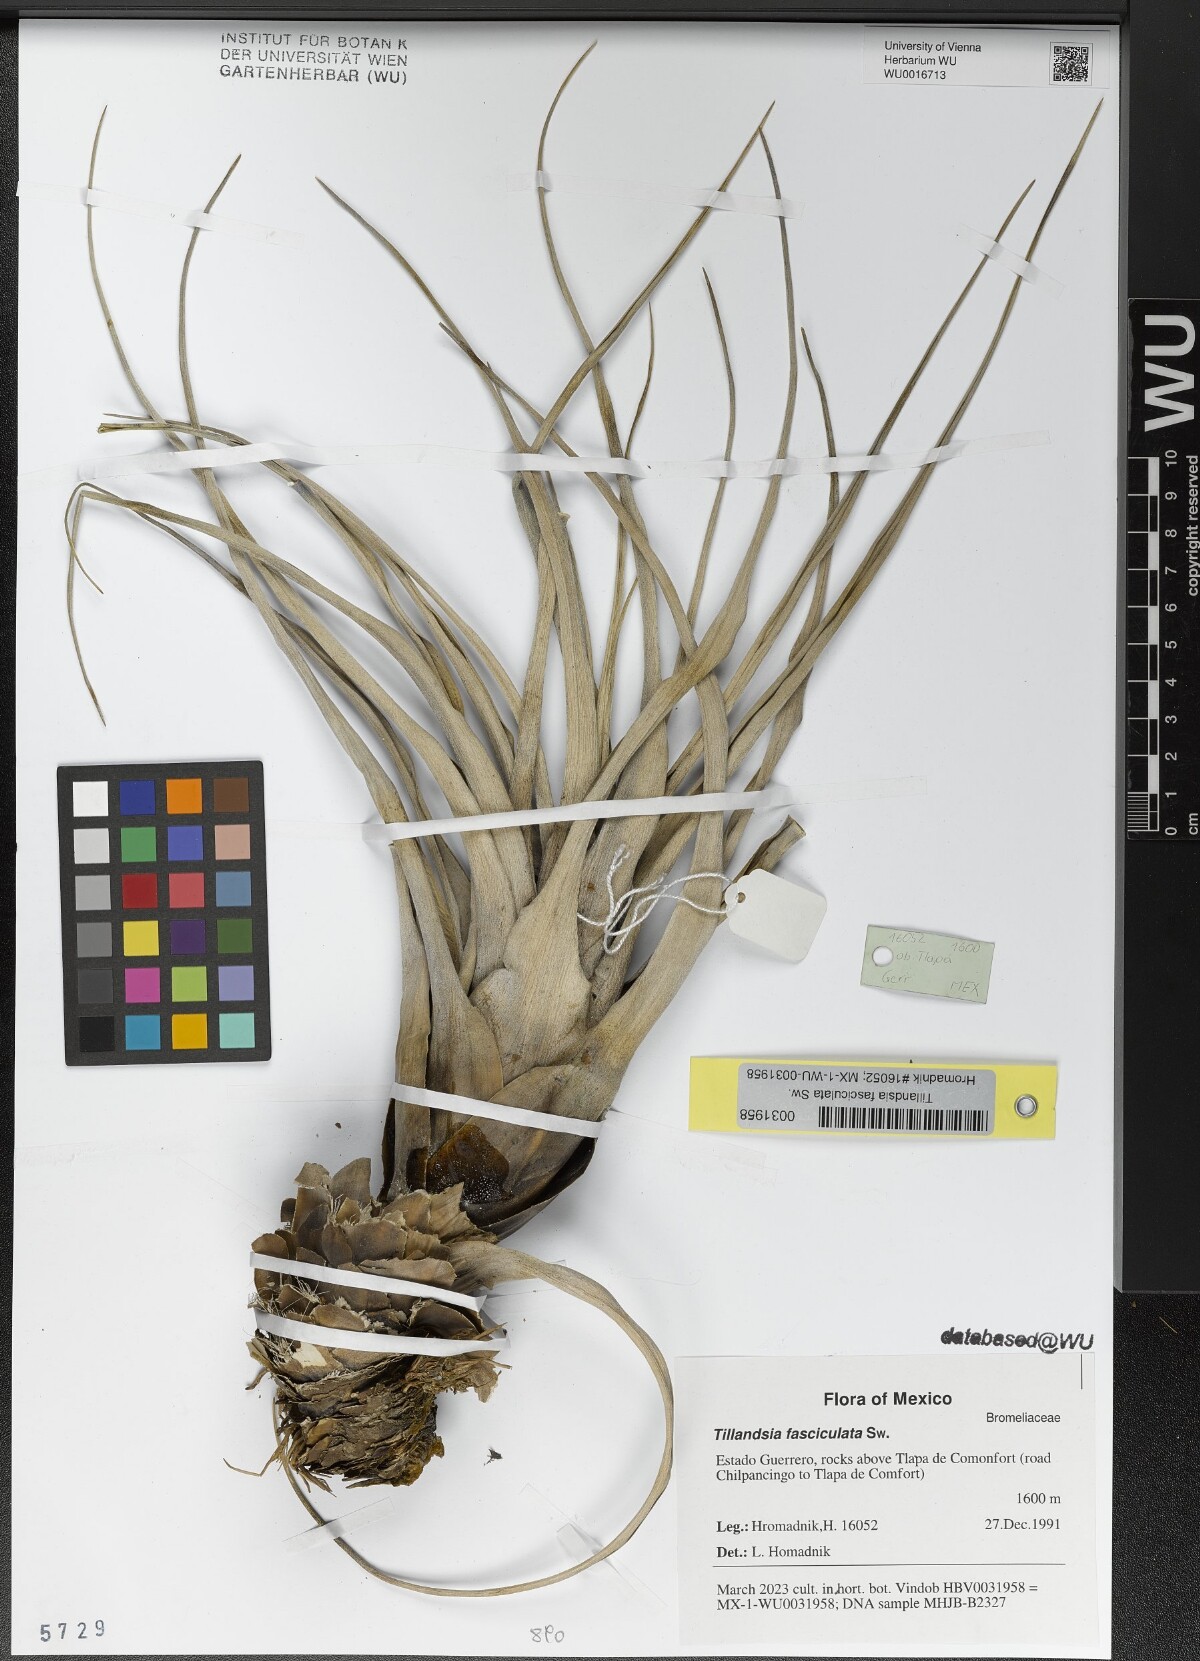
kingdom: Plantae
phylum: Tracheophyta
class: Liliopsida
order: Poales
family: Bromeliaceae
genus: Tillandsia
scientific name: Tillandsia fasciculata
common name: Giant airplant
